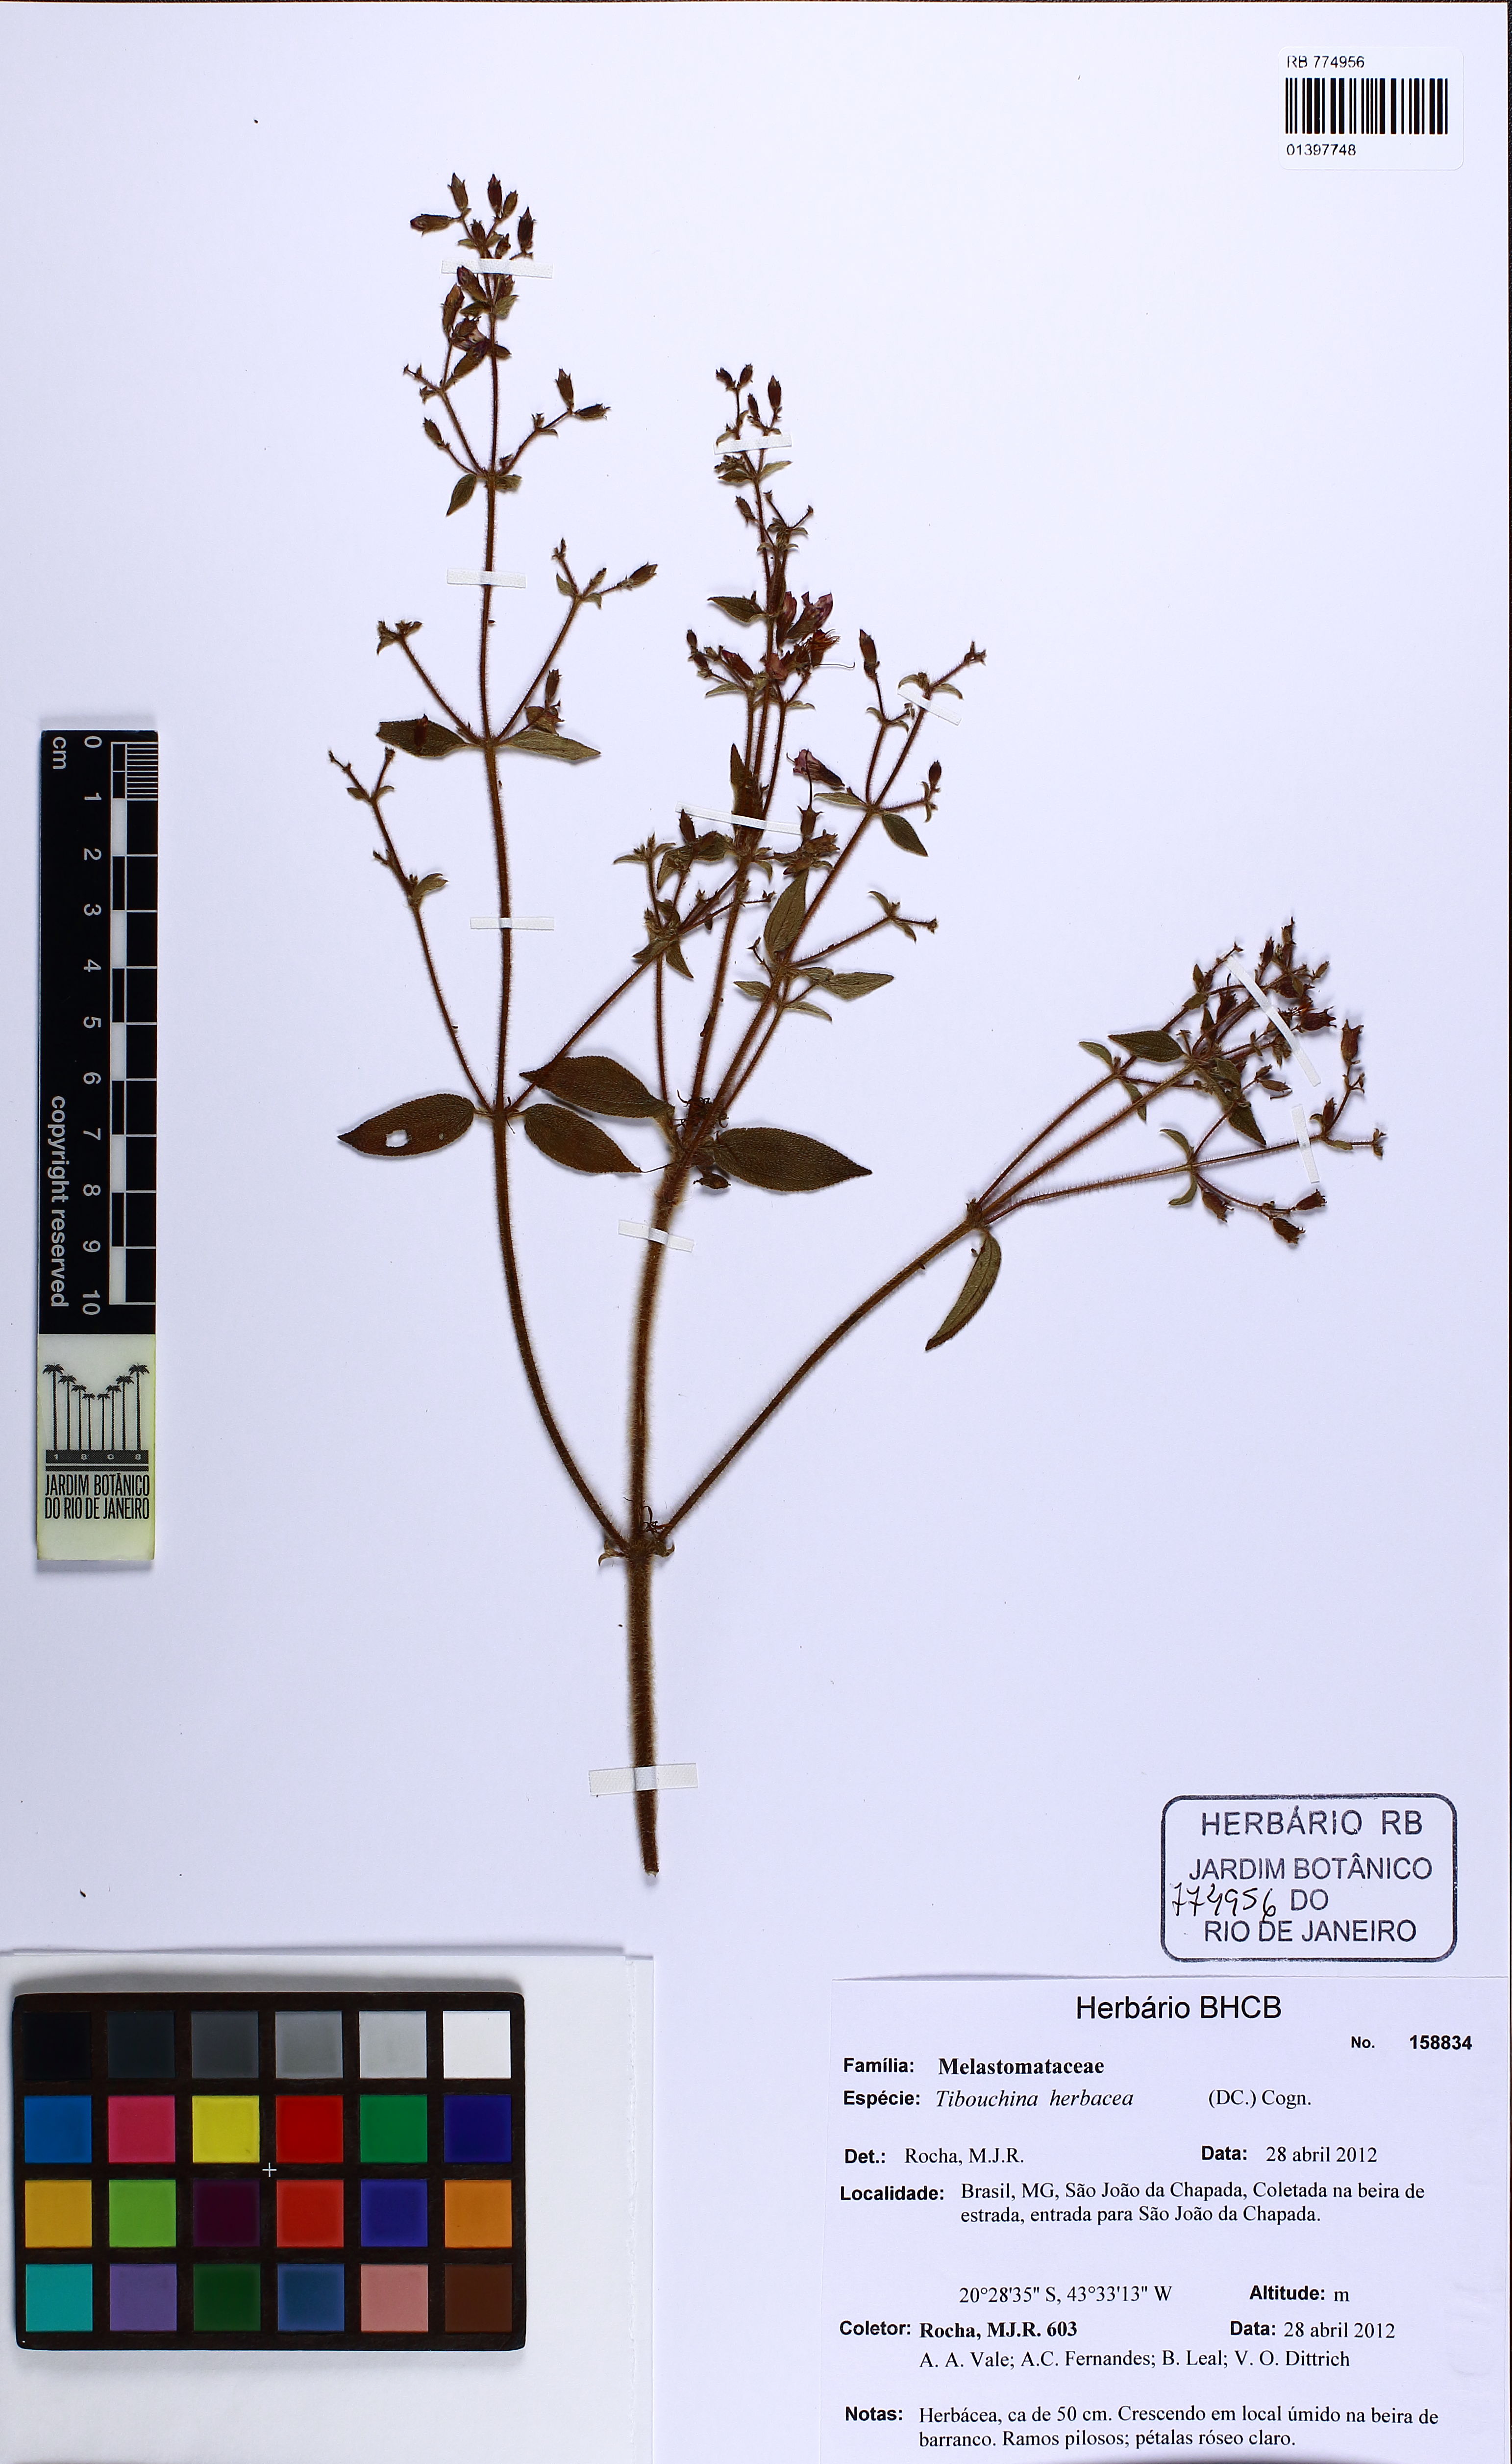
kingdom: Plantae
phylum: Tracheophyta
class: Magnoliopsida
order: Myrtales
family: Melastomataceae
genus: Chaetogastra
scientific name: Chaetogastra herbacea
